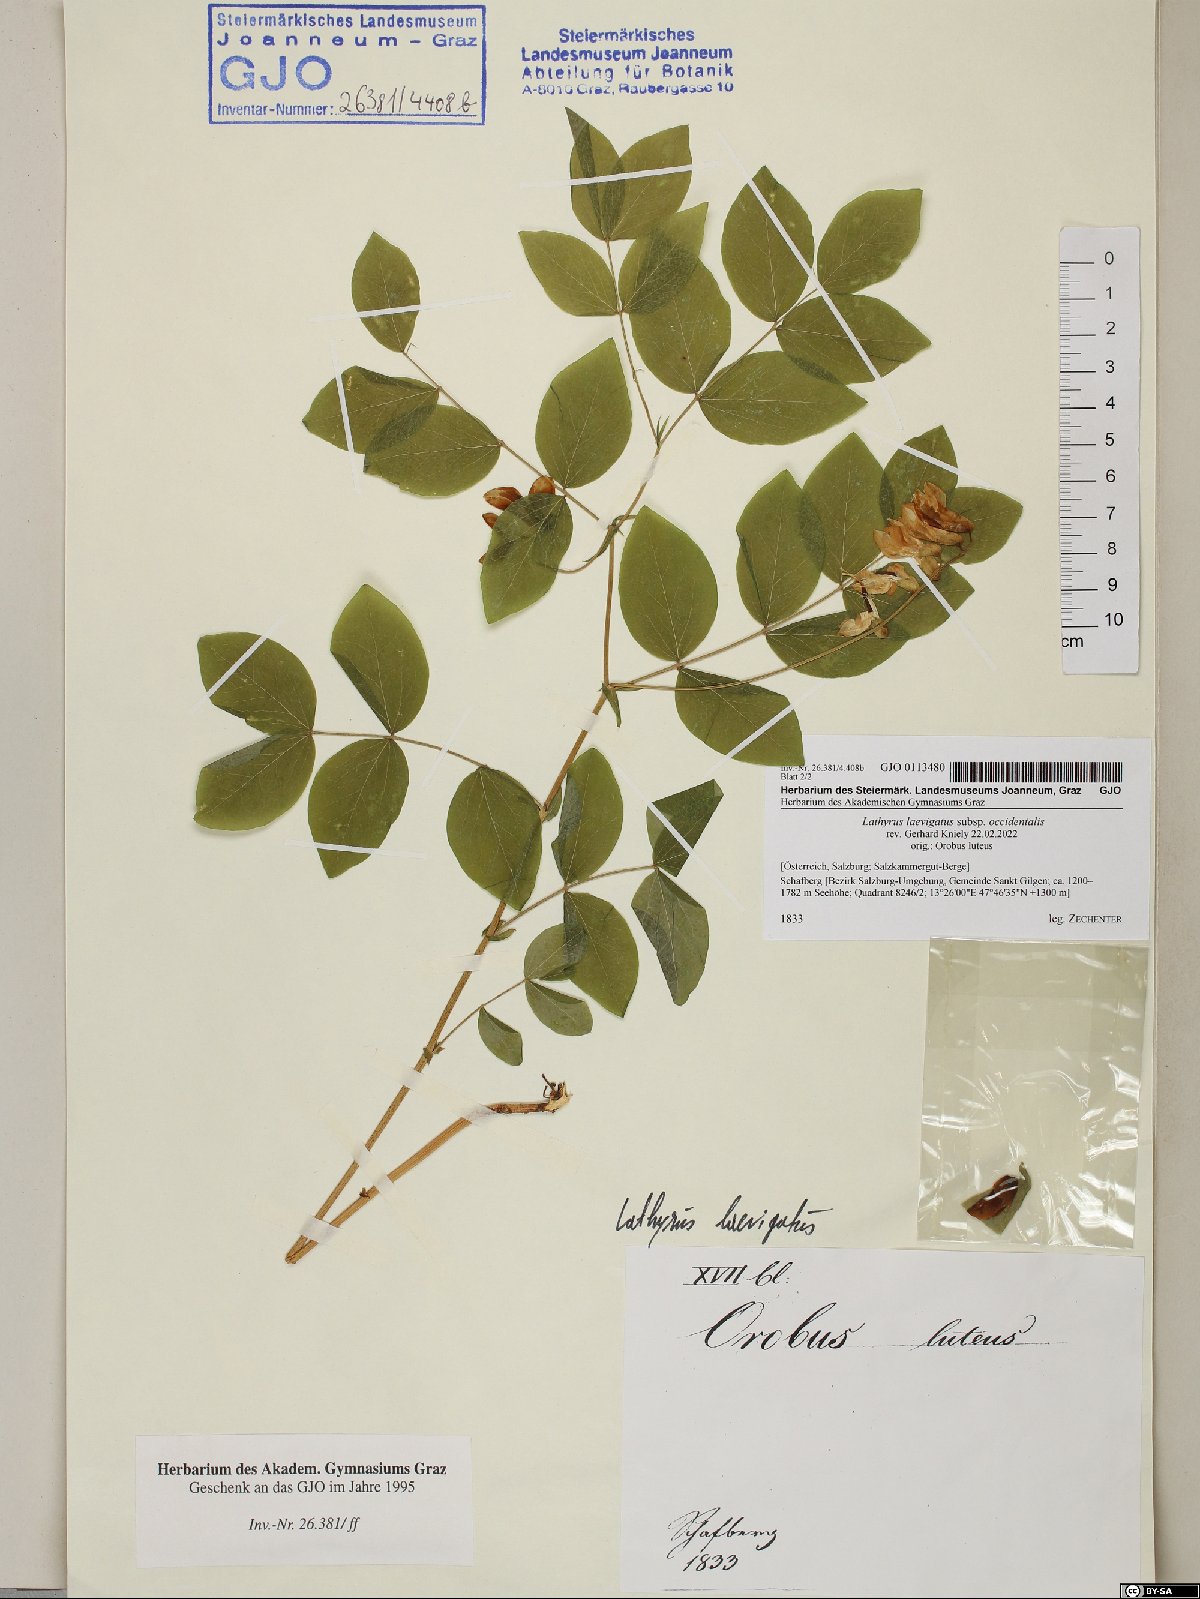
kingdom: Plantae
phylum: Tracheophyta
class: Magnoliopsida
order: Fabales
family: Fabaceae
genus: Lathyrus
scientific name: Lathyrus laevigatus
